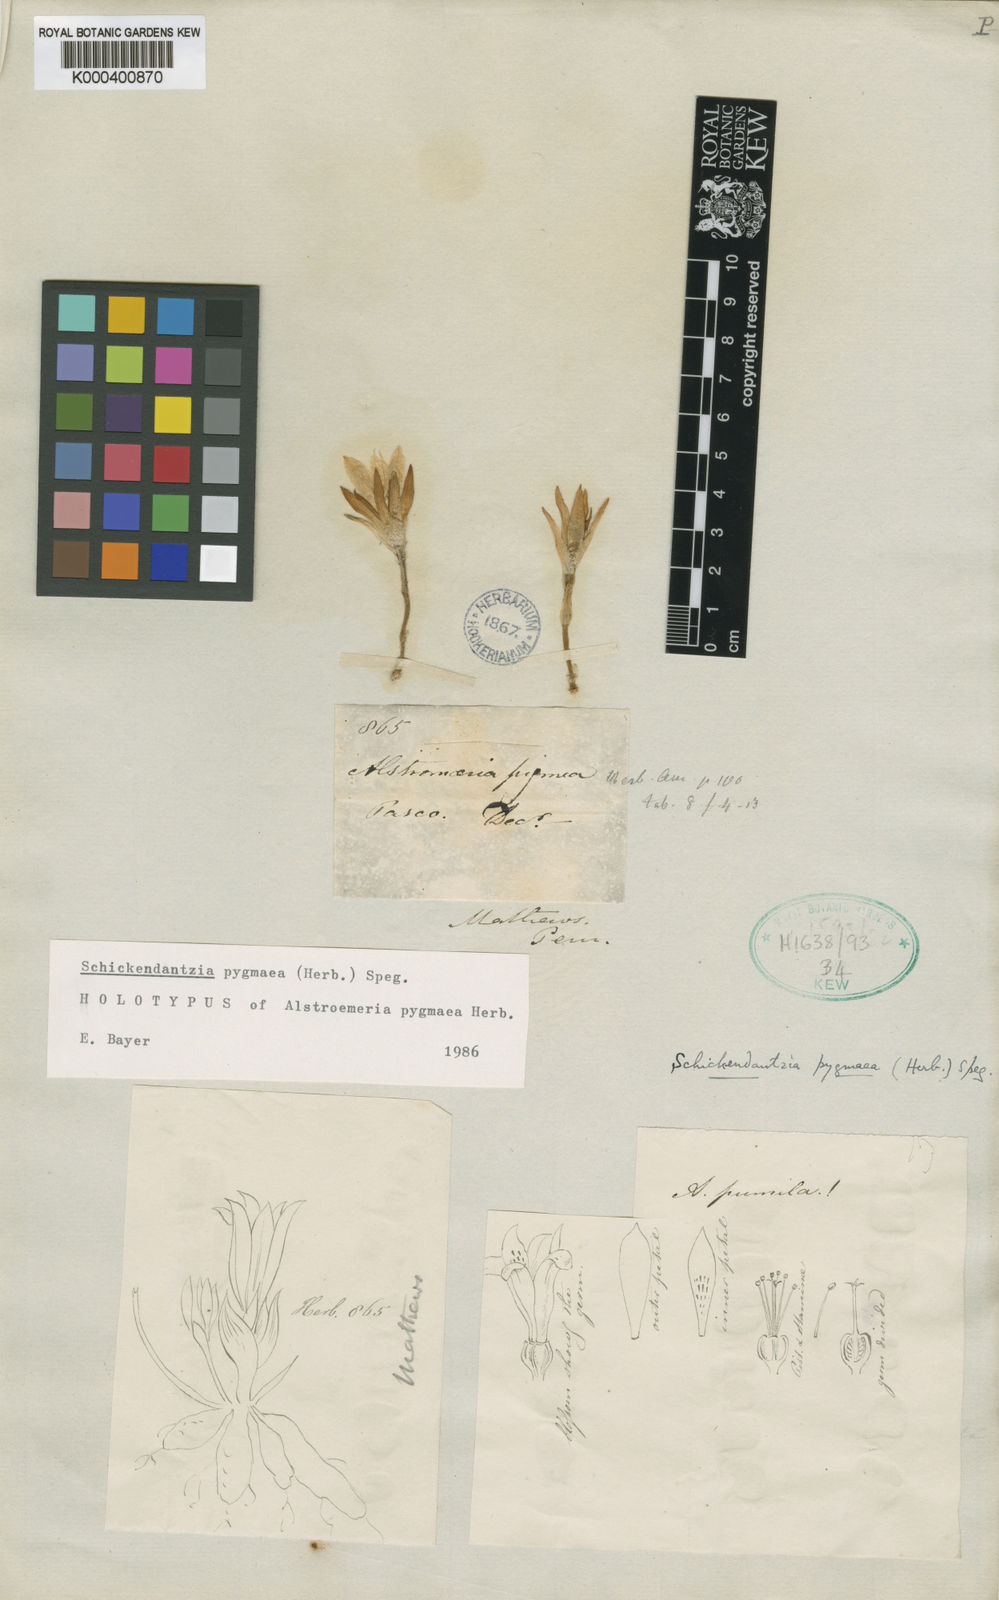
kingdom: Plantae
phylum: Tracheophyta
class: Liliopsida
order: Liliales
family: Alstroemeriaceae
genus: Alstroemeria
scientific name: Alstroemeria pygmaea
